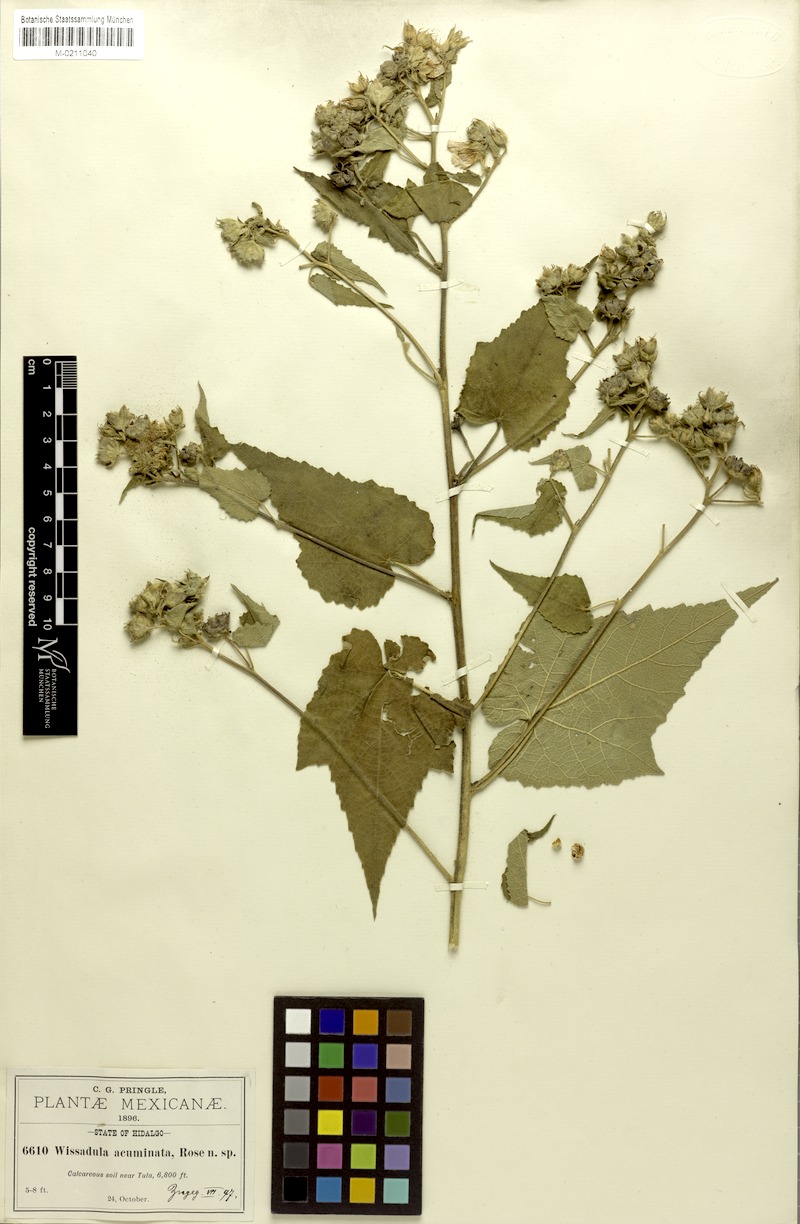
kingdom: Plantae
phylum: Tracheophyta
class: Magnoliopsida
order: Malvales
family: Malvaceae
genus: Allowissadula
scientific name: Allowissadula sessei
